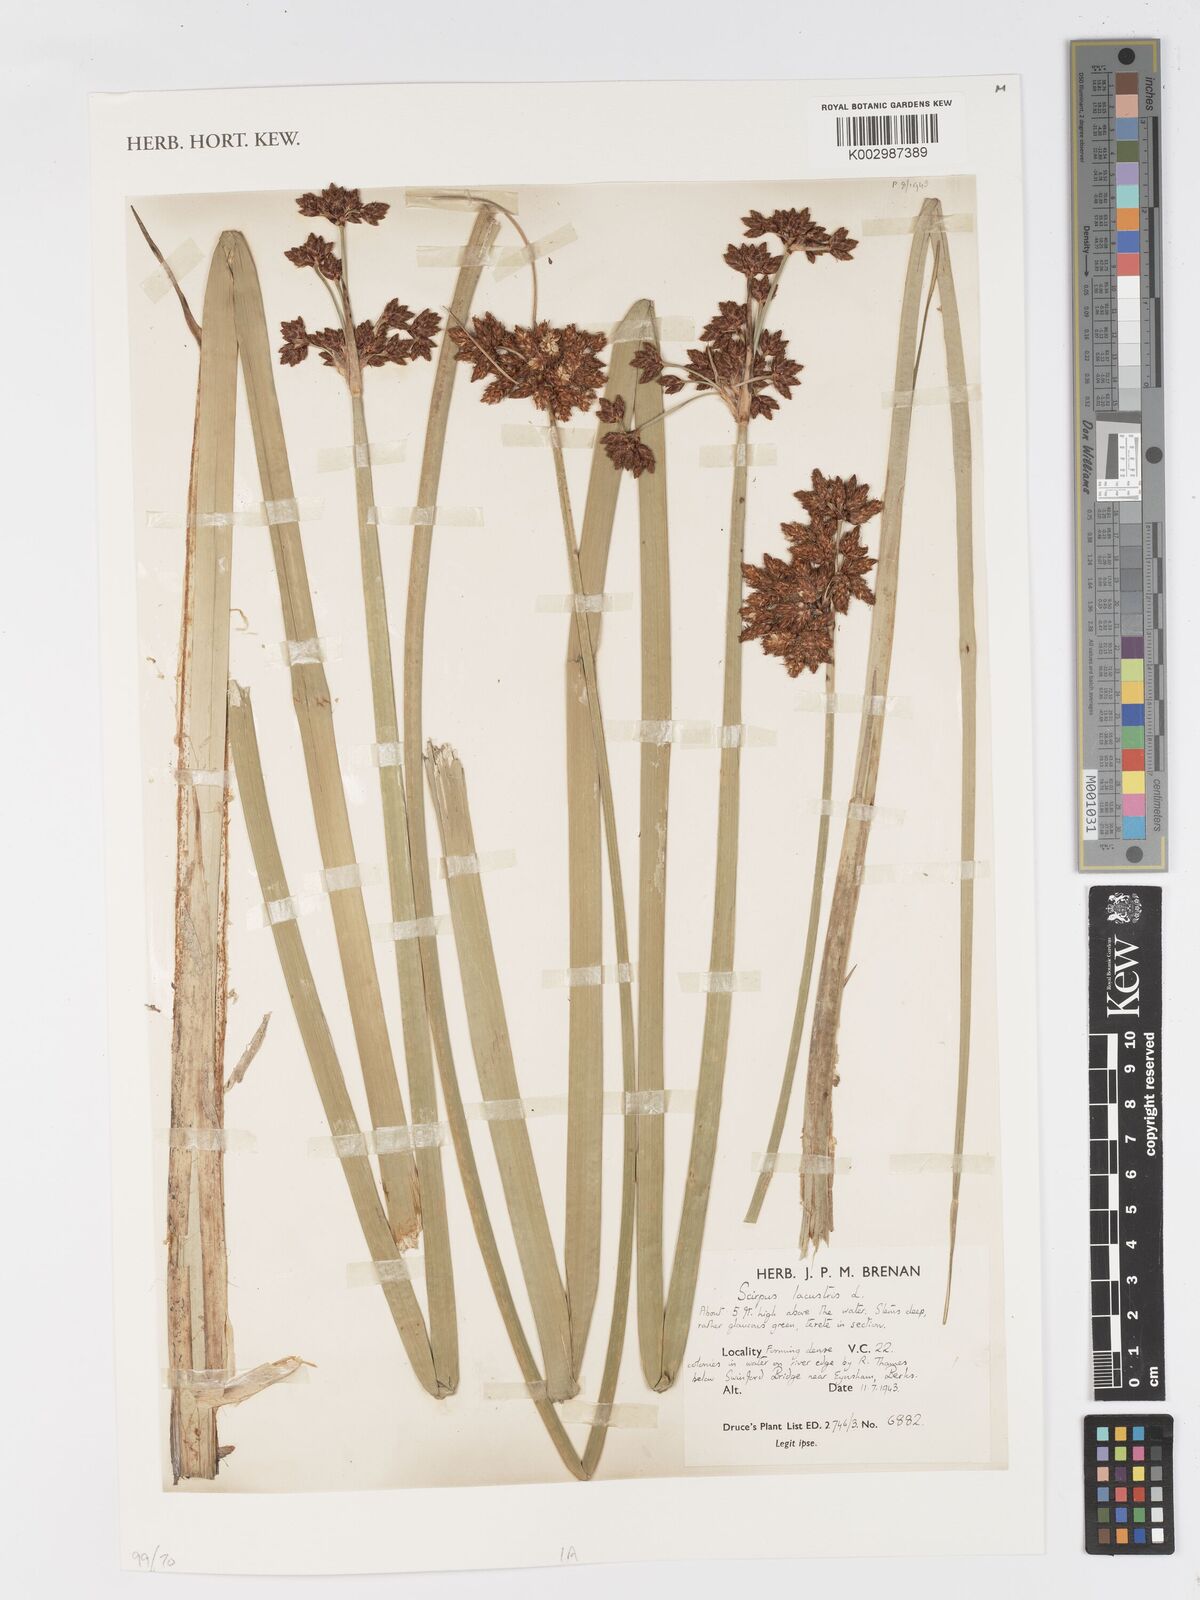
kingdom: Plantae
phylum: Tracheophyta
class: Liliopsida
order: Poales
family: Cyperaceae
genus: Schoenoplectus
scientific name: Schoenoplectus lacustris
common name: Common club-rush
